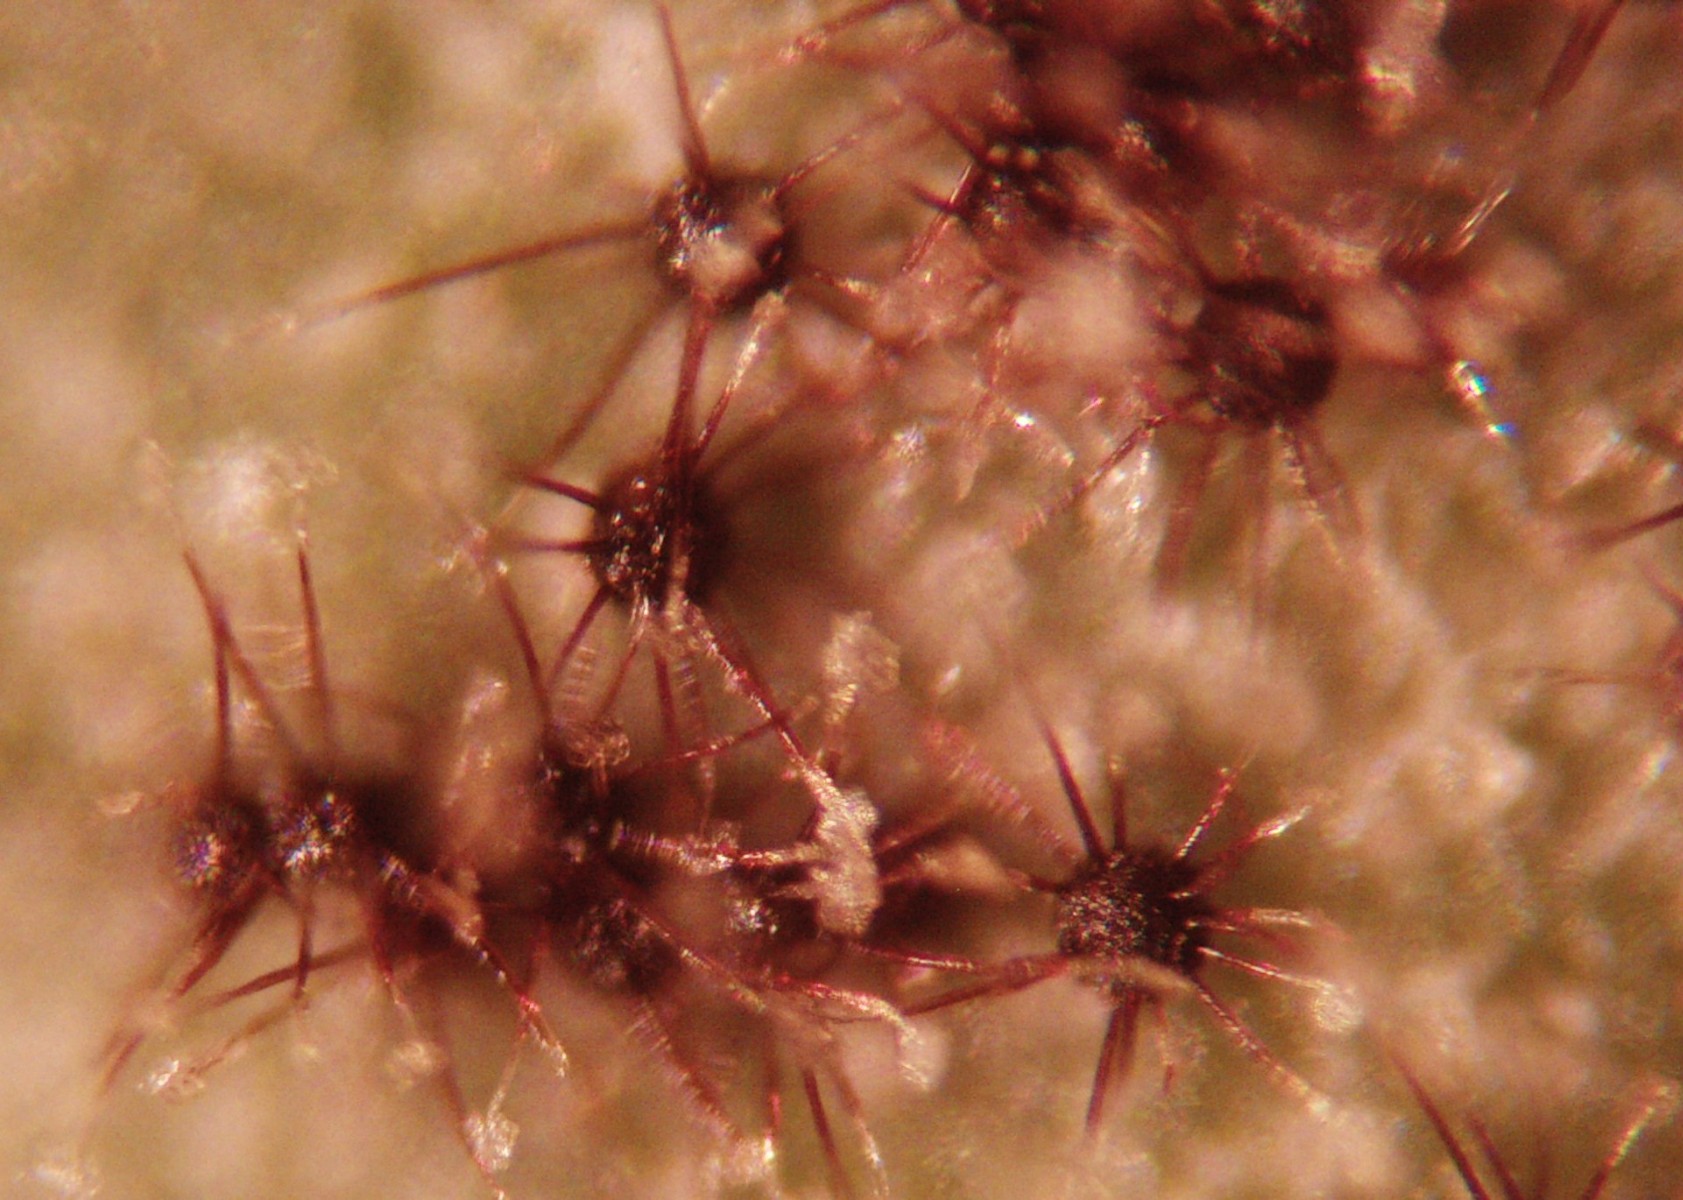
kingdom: Fungi
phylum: Ascomycota
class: Leotiomycetes
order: Helotiales
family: Erysiphaceae
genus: Podosphaera
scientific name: Podosphaera amelanchieris
